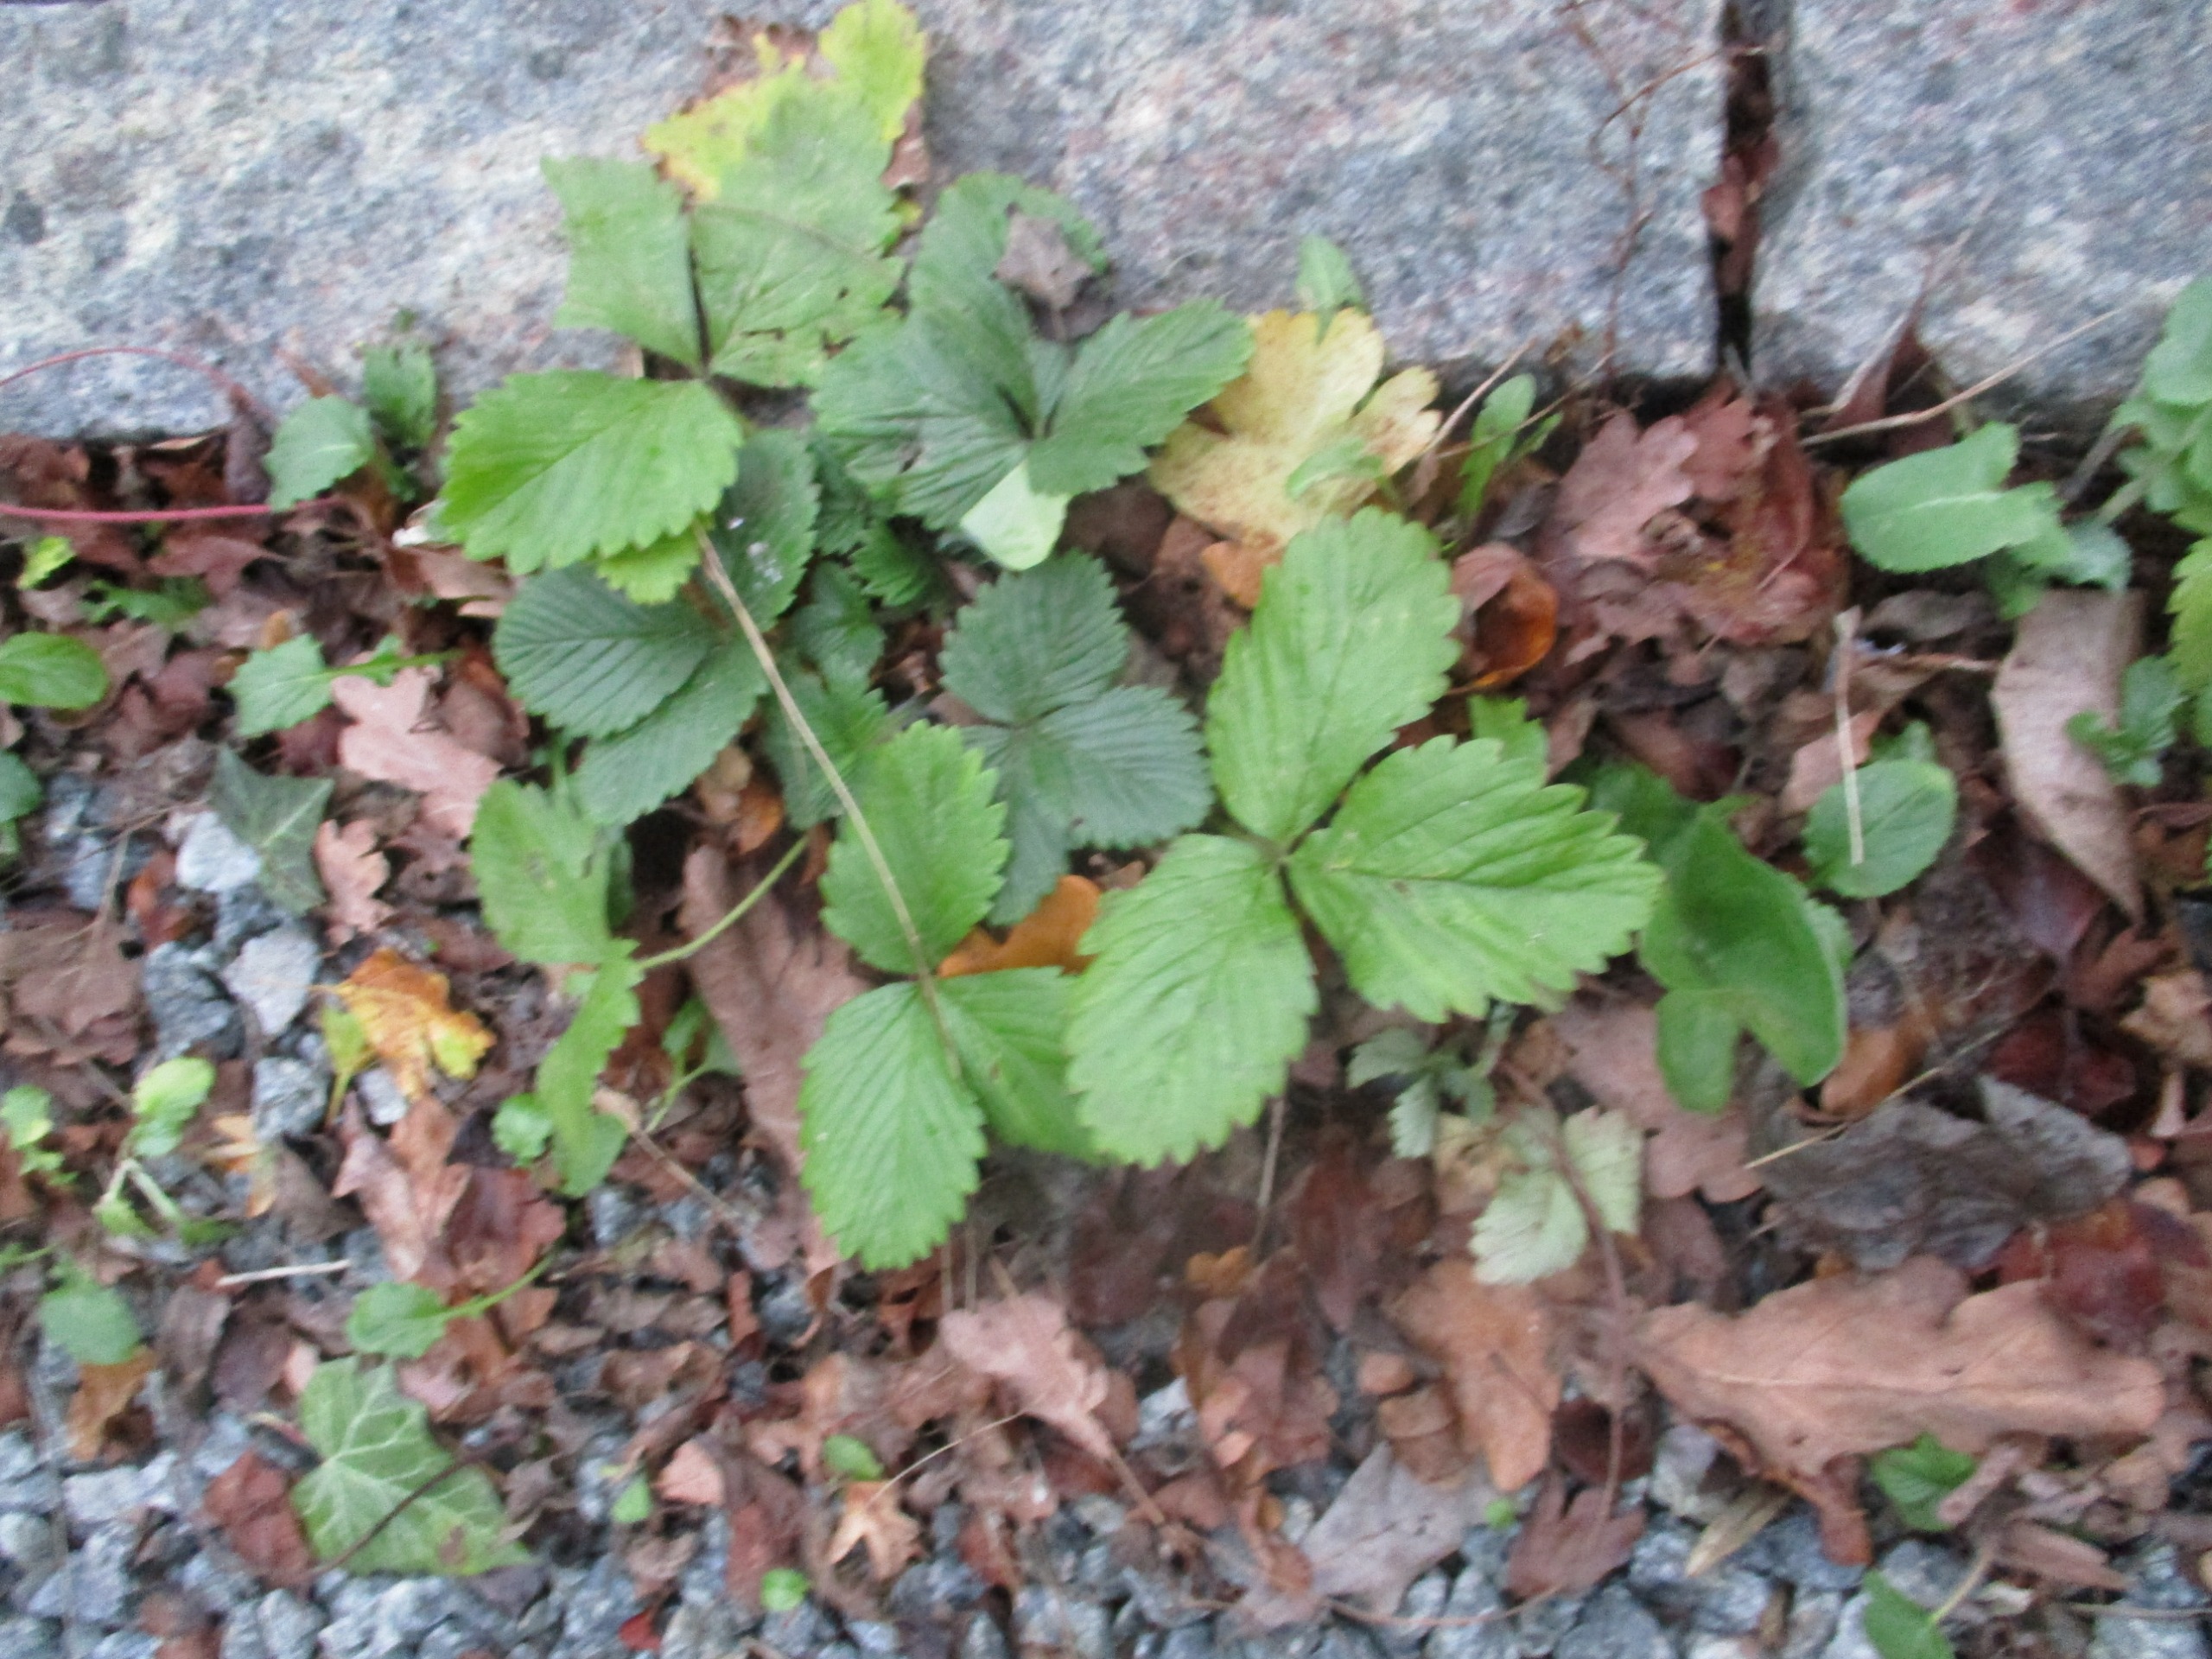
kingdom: Plantae
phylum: Tracheophyta
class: Magnoliopsida
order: Rosales
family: Rosaceae
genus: Fragaria
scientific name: Fragaria vesca
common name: Skov-jordbær
